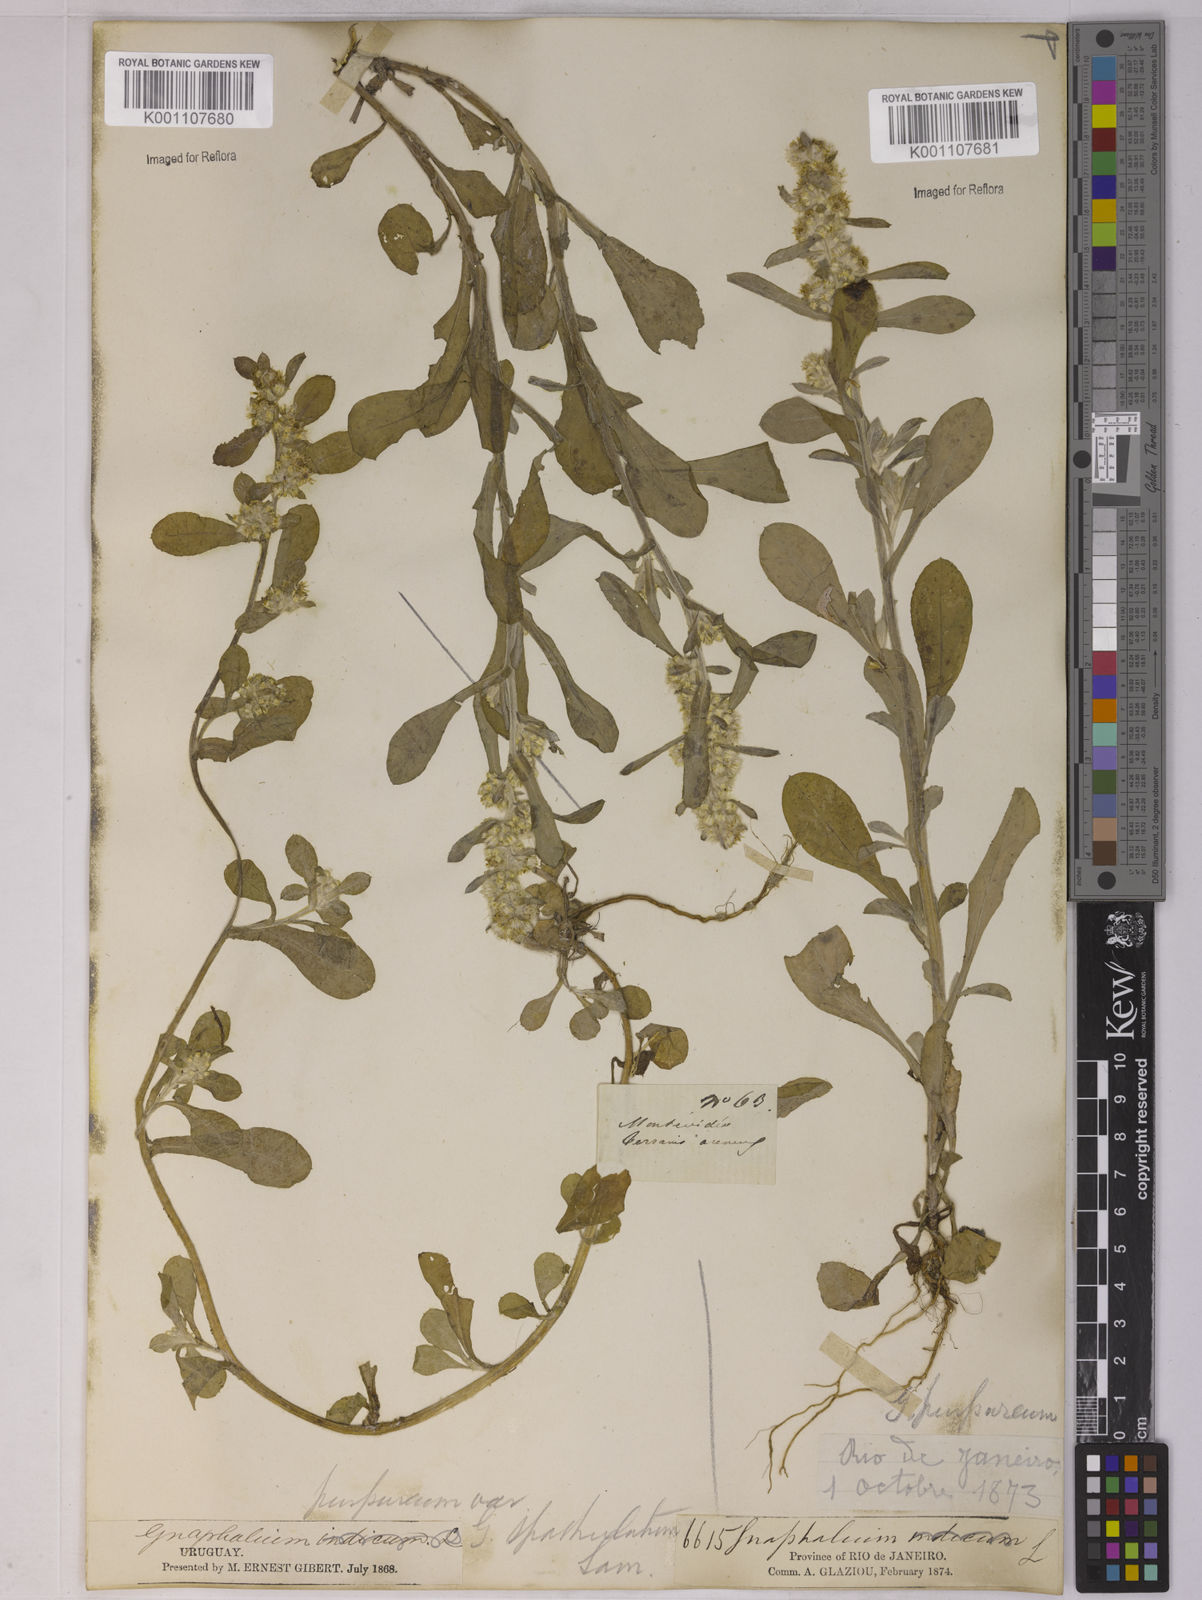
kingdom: Plantae
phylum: Tracheophyta
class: Magnoliopsida
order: Asterales
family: Asteraceae
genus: Gamochaeta
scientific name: Gamochaeta pensylvanica
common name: Pennsylvania everlasting
